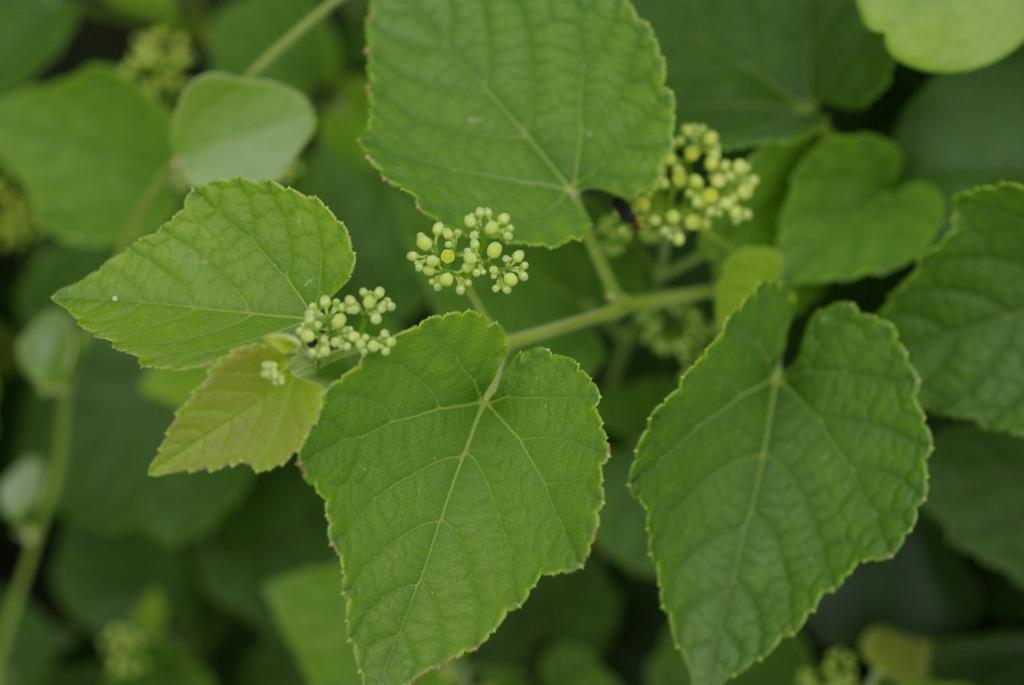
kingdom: Plantae
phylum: Tracheophyta
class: Magnoliopsida
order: Vitales
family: Vitaceae
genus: Ampelopsis
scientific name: Ampelopsis glandulosa
